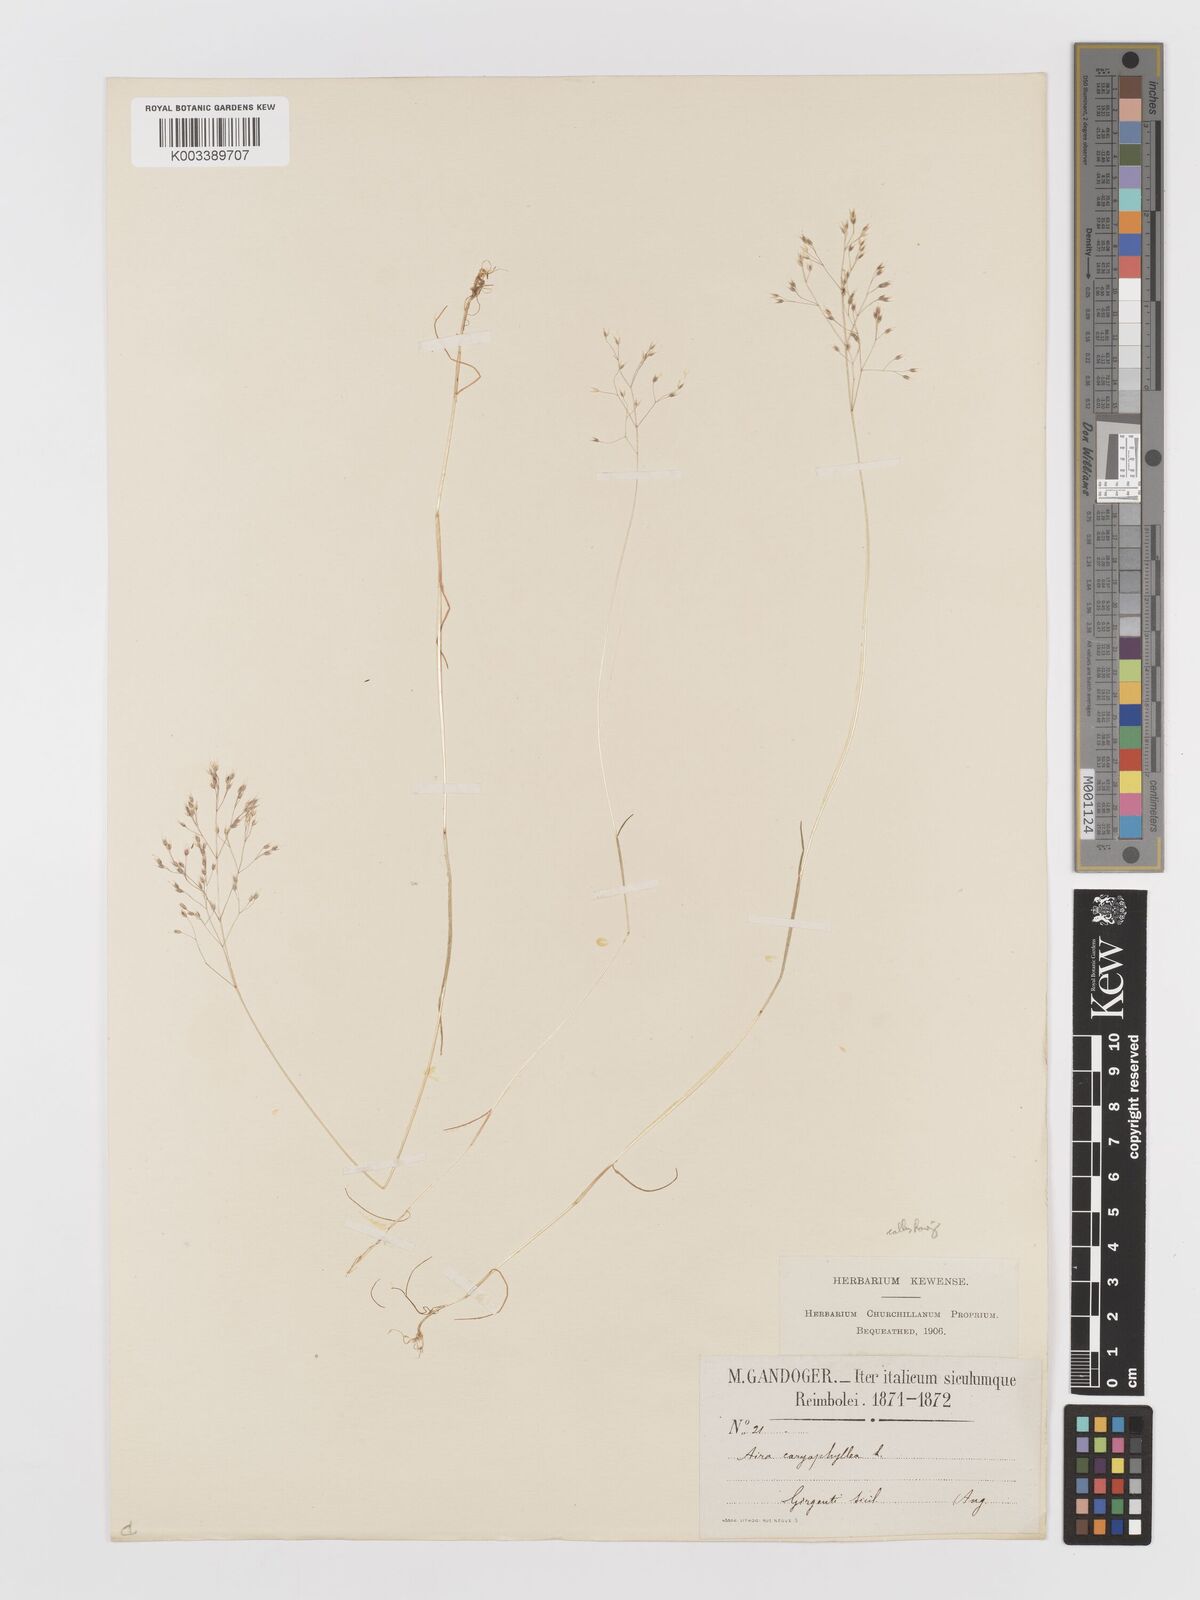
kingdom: Plantae
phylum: Tracheophyta
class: Liliopsida
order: Poales
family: Poaceae
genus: Aira
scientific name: Aira caryophyllea
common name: Silver hairgrass
